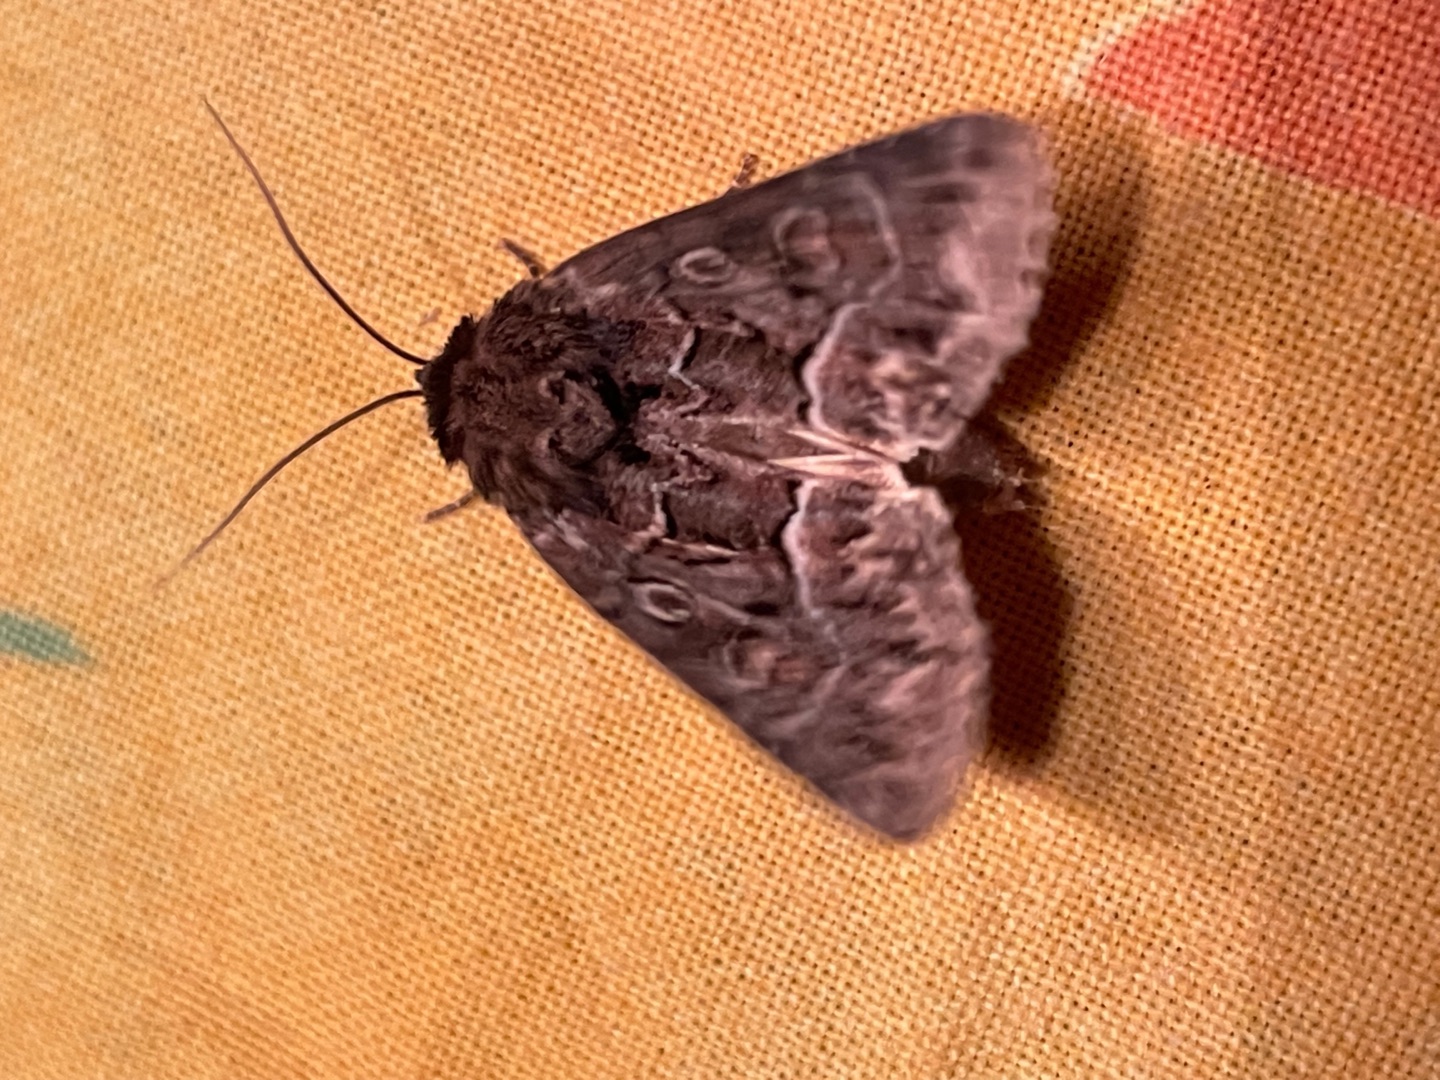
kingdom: Animalia
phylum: Arthropoda
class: Insecta
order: Lepidoptera
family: Noctuidae
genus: Thalpophila
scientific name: Thalpophila matura
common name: Gulvinget ugle
